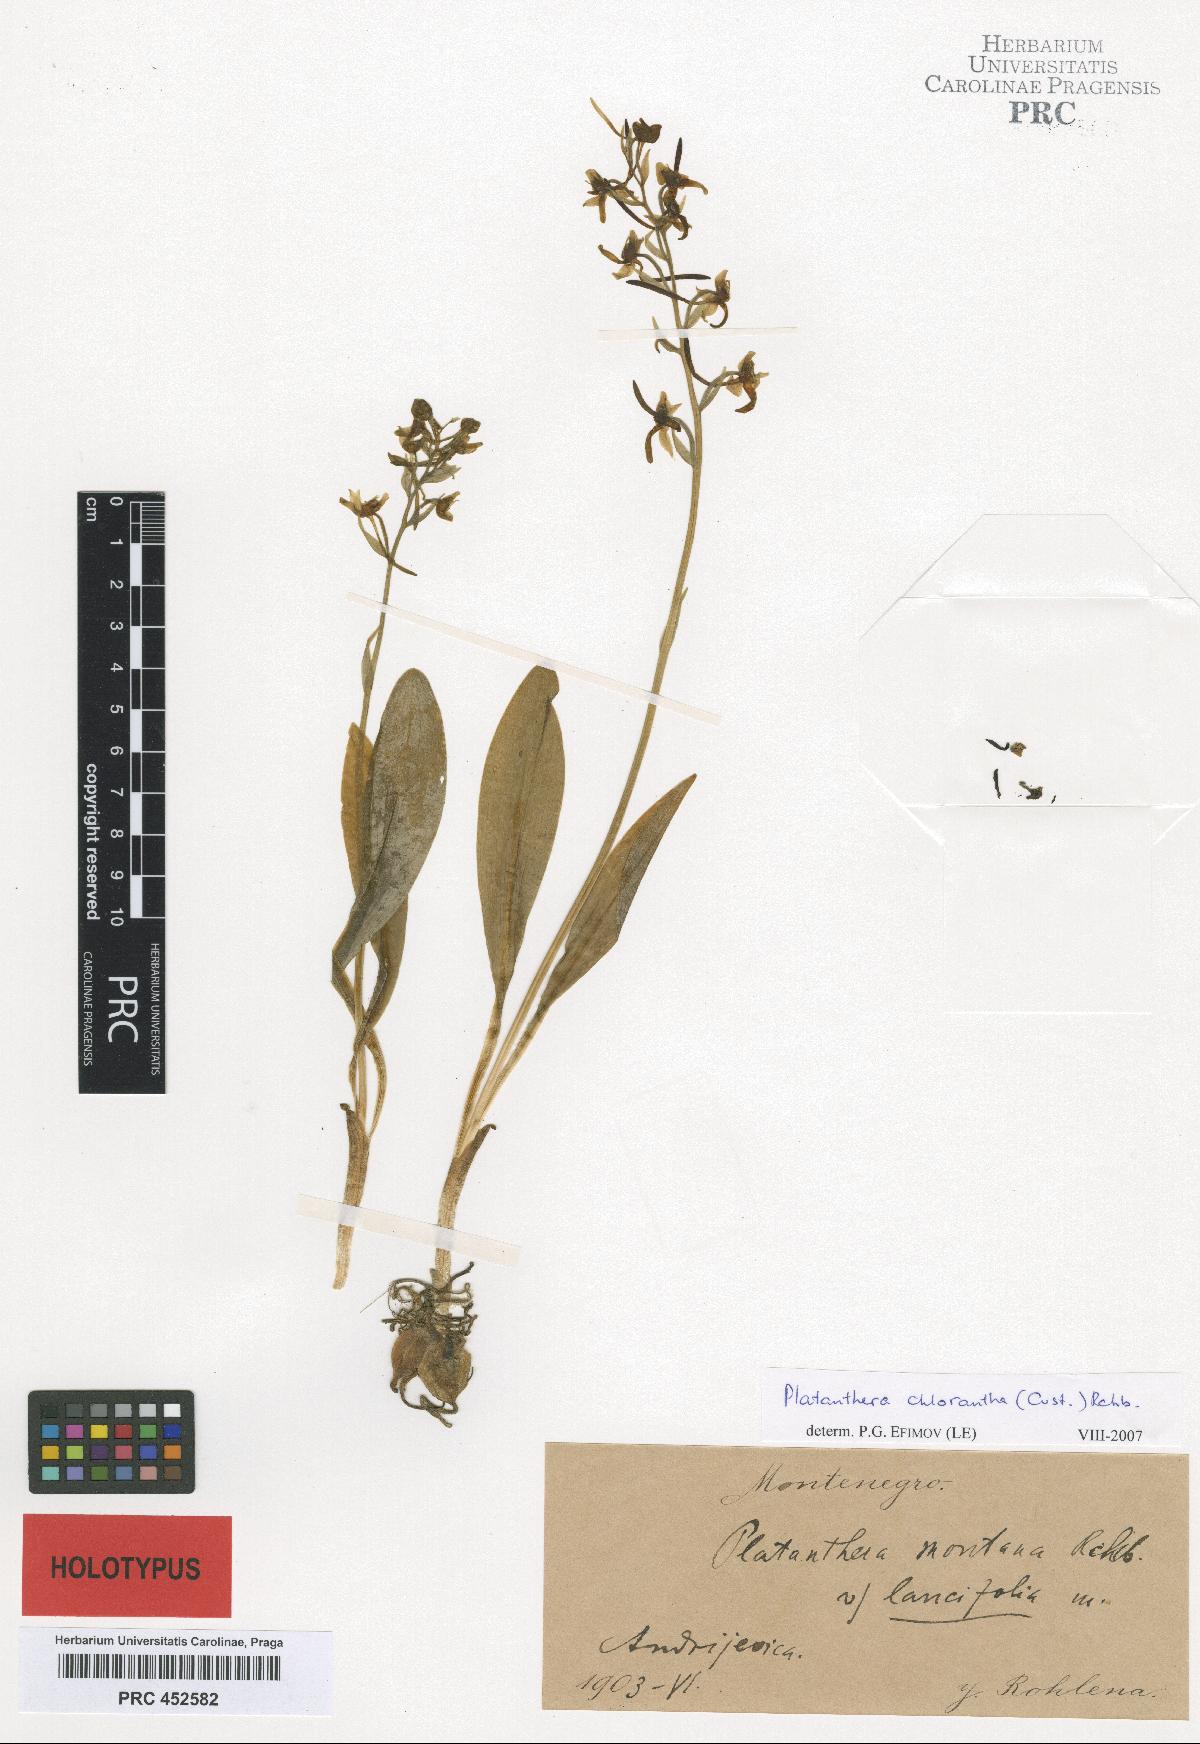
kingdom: Plantae
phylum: Tracheophyta
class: Liliopsida
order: Asparagales
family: Orchidaceae
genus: Platanthera
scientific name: Platanthera chlorantha
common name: Greater butterfly-orchid
